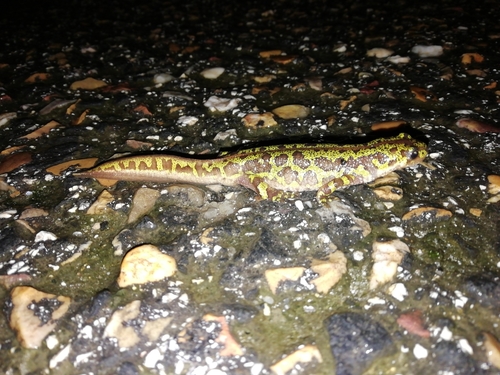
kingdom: Animalia
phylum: Chordata
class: Amphibia
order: Caudata
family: Salamandridae
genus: Triturus
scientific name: Triturus pygmaeus
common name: Southern marbled newt
